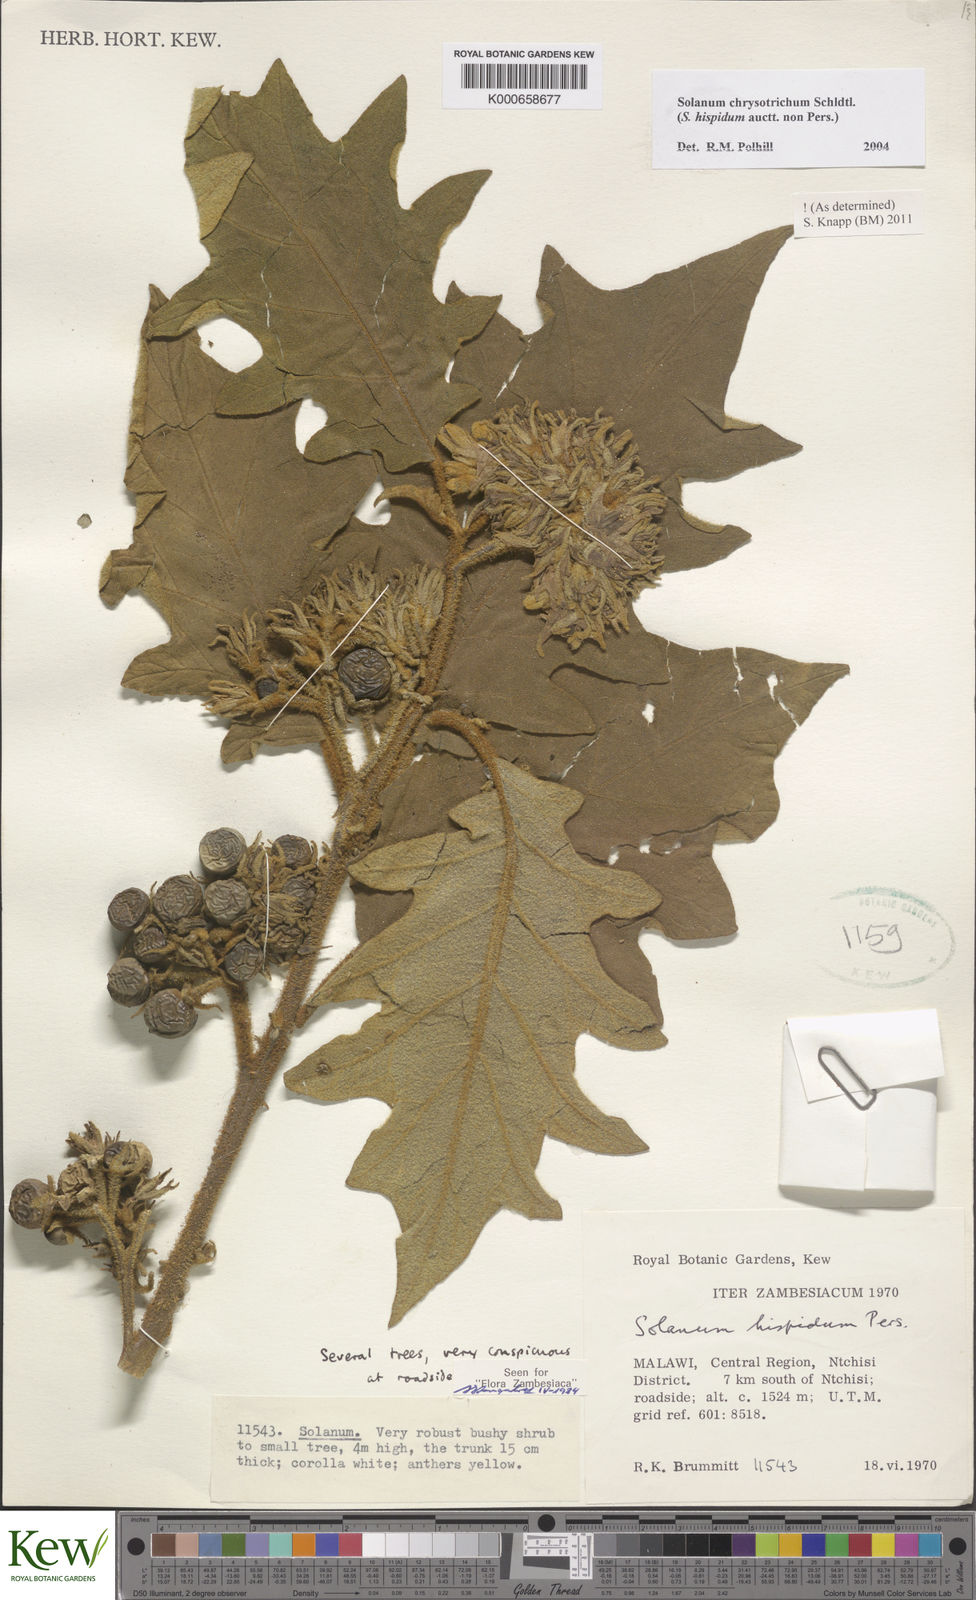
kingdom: Plantae
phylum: Tracheophyta
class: Magnoliopsida
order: Solanales
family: Solanaceae
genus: Solanum
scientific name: Solanum chrysotrichum
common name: Nightshade
